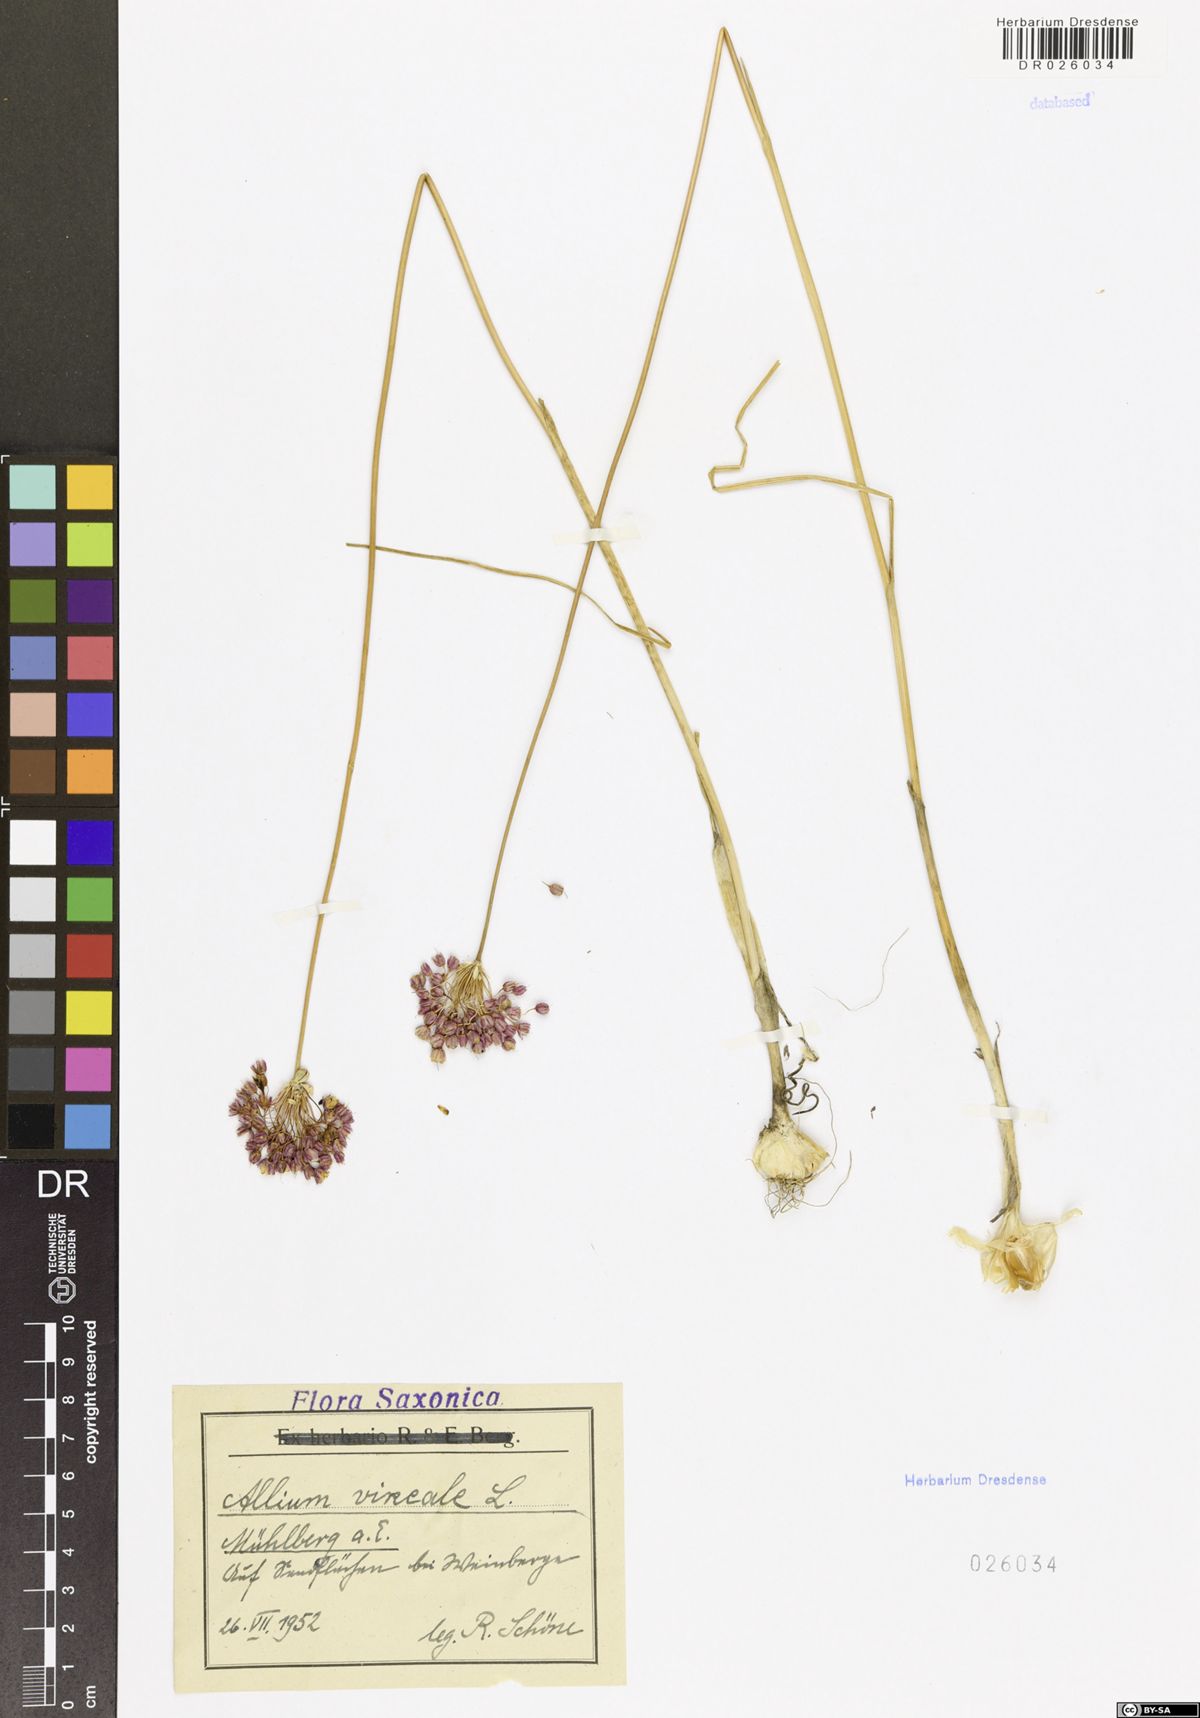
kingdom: Plantae
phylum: Tracheophyta
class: Liliopsida
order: Asparagales
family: Amaryllidaceae
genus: Allium
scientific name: Allium vineale
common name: Crow garlic
